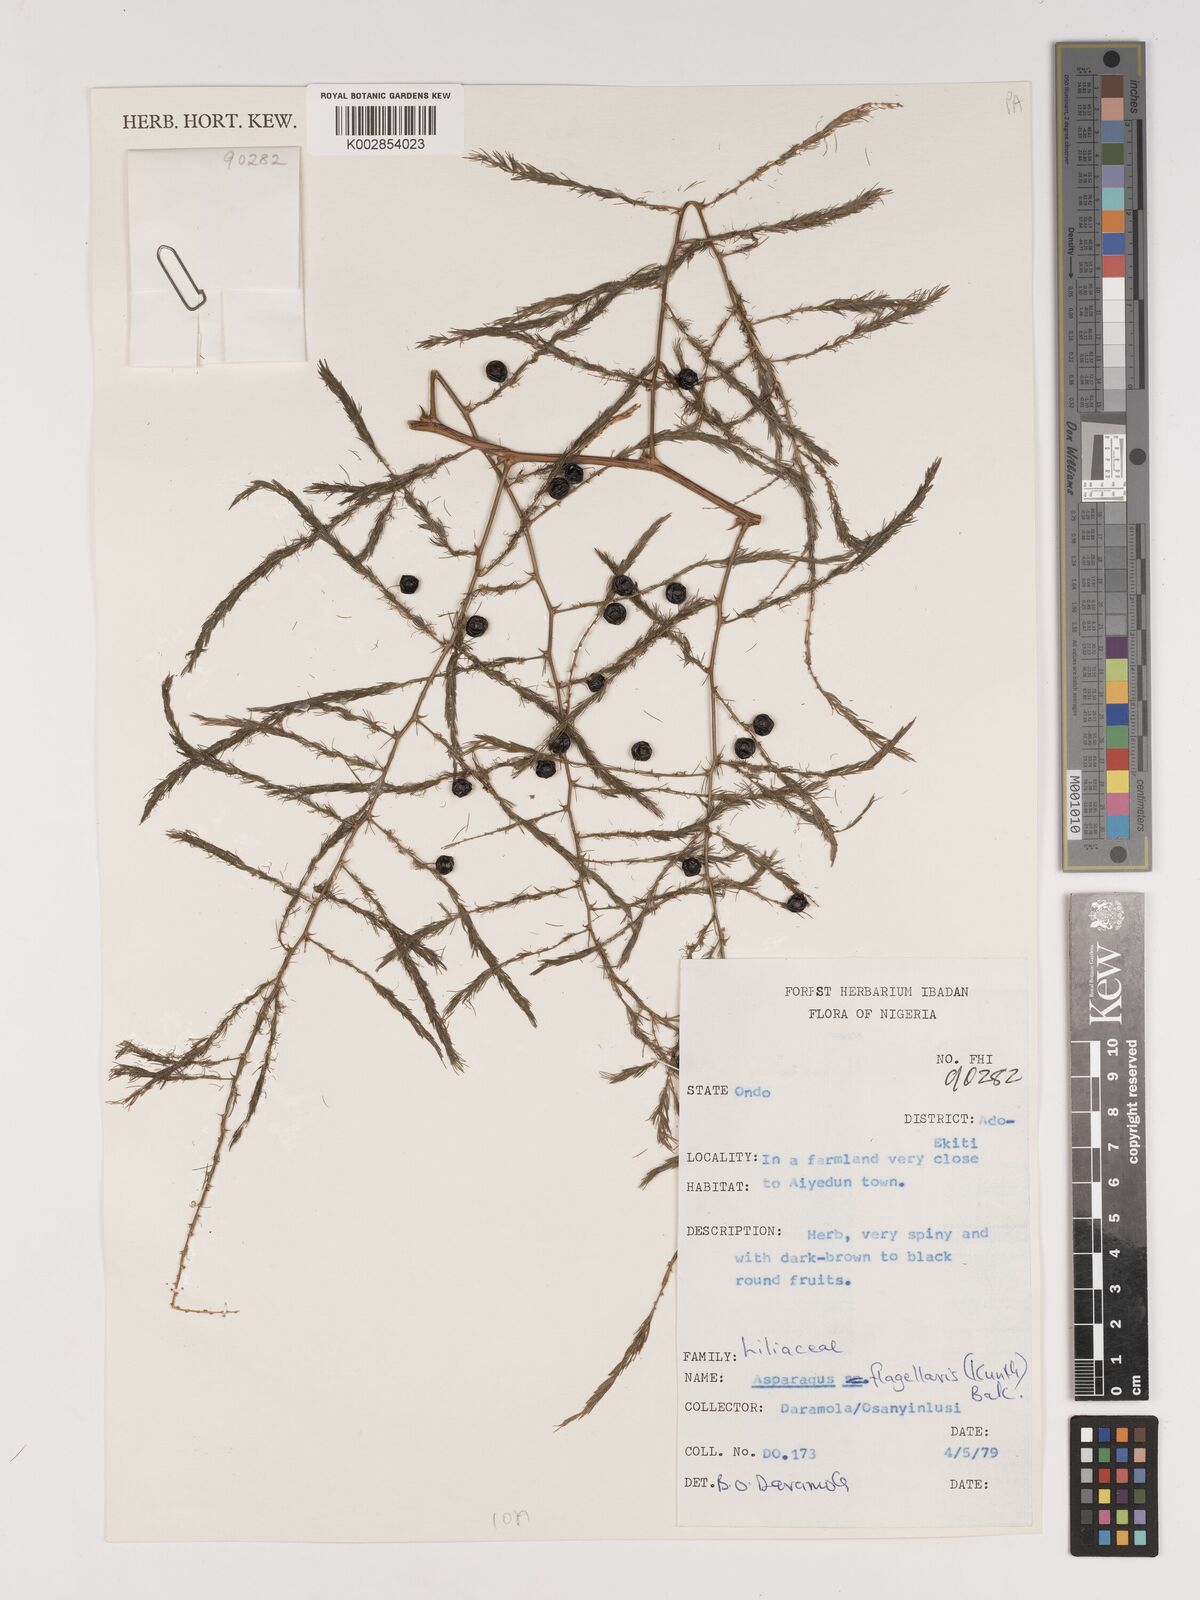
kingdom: Plantae
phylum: Tracheophyta
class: Liliopsida
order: Asparagales
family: Asparagaceae
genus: Asparagus
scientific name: Asparagus flagellaris
